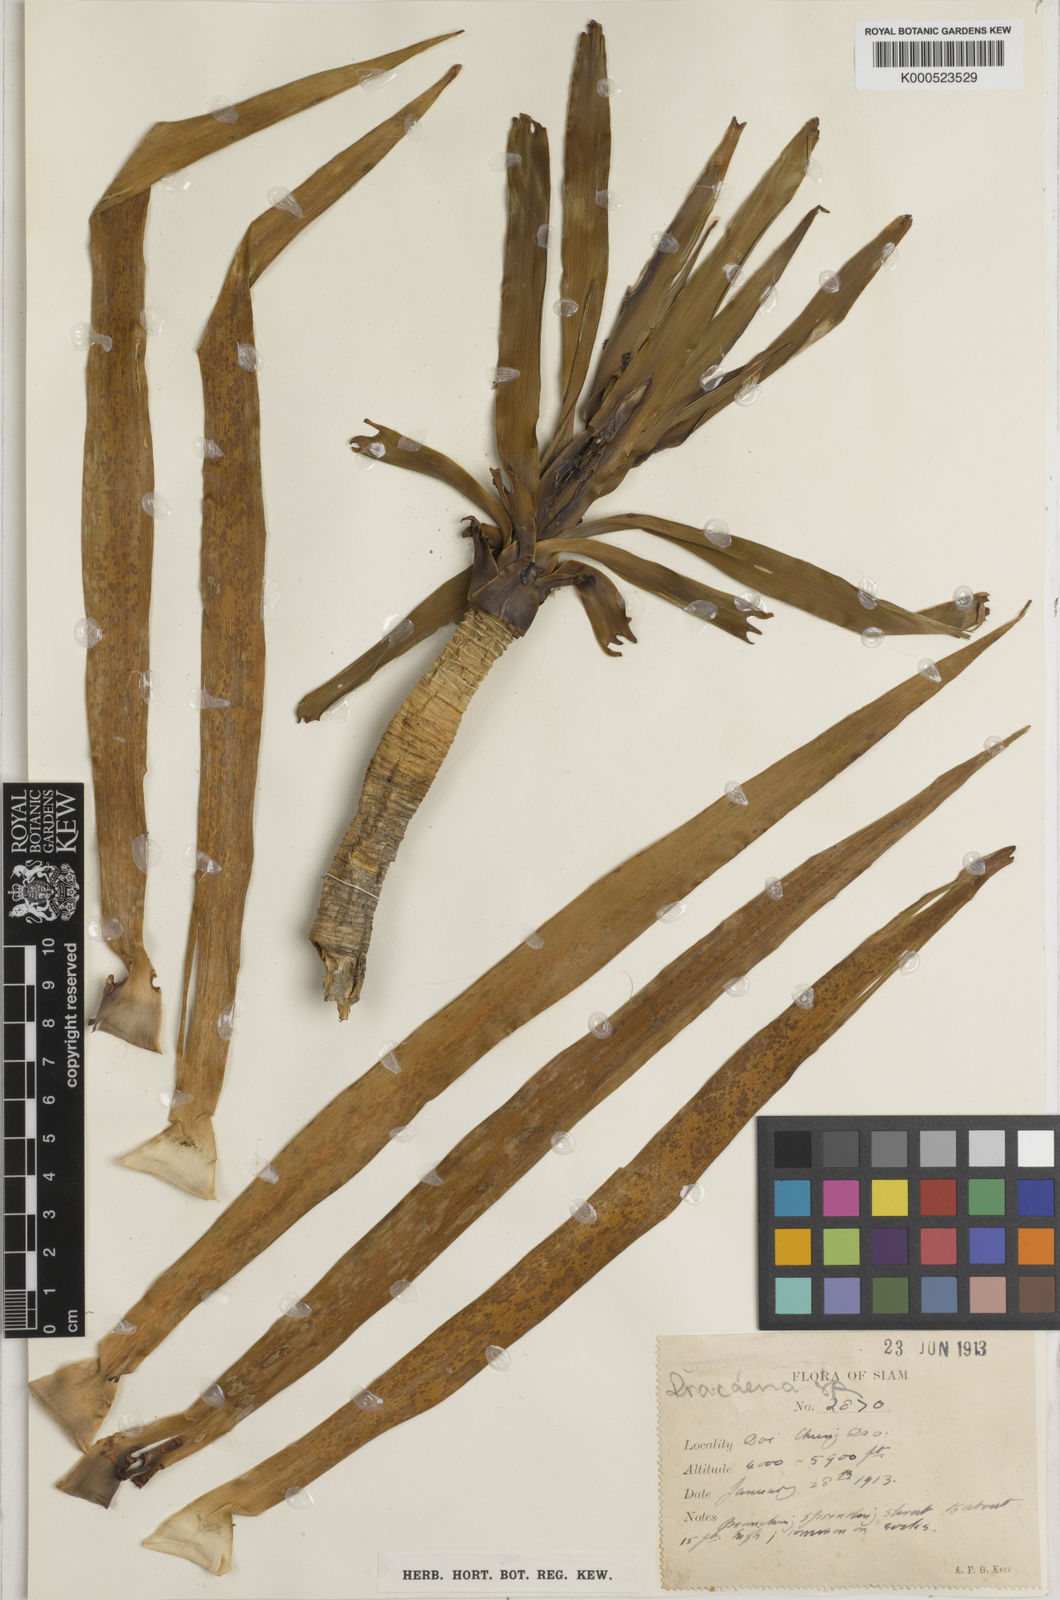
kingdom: Plantae
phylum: Tracheophyta
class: Liliopsida
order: Asparagales
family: Asparagaceae
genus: Dracaena
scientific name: Dracaena
